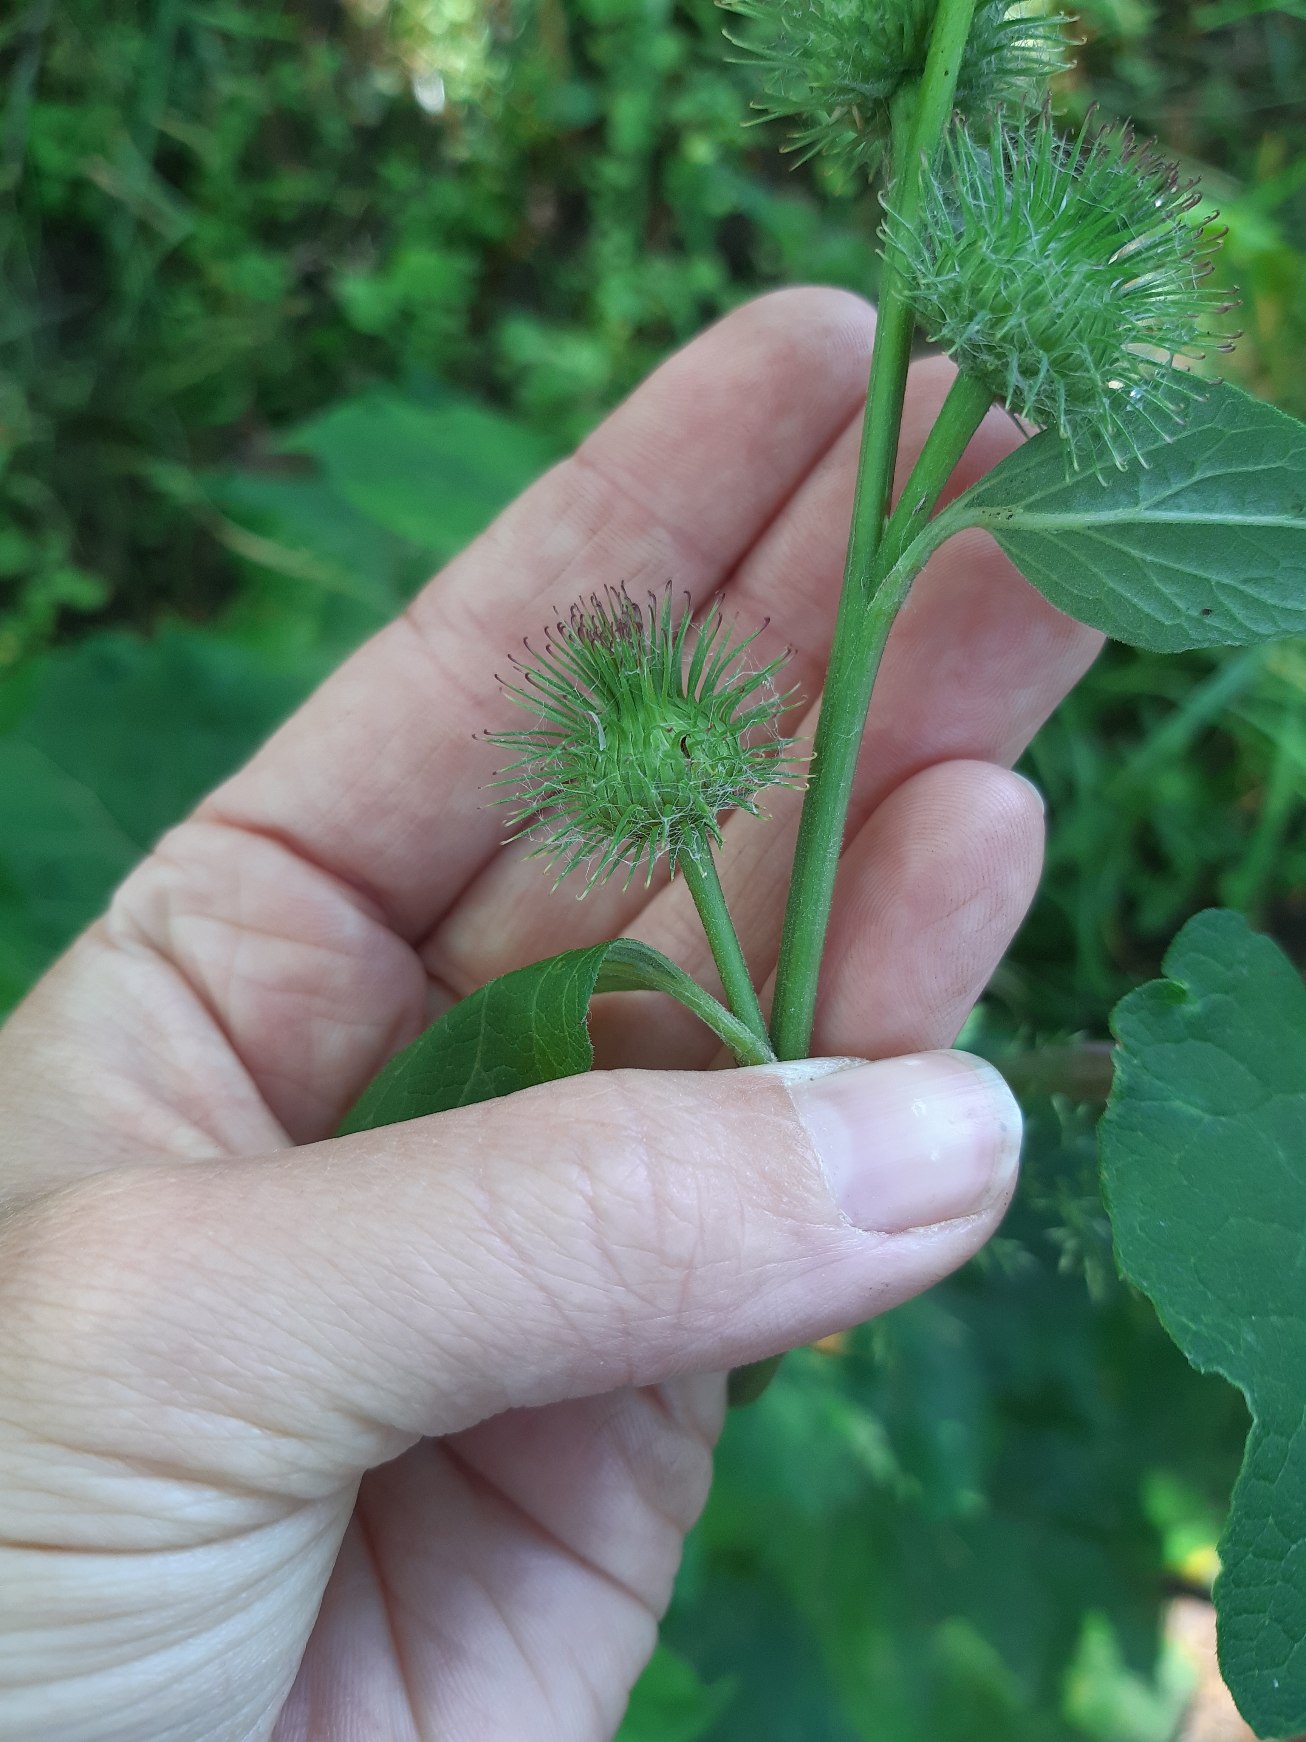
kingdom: Plantae
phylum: Tracheophyta
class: Magnoliopsida
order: Asterales
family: Asteraceae
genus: Arctium
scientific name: Arctium nemorosum
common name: Skov-burre
